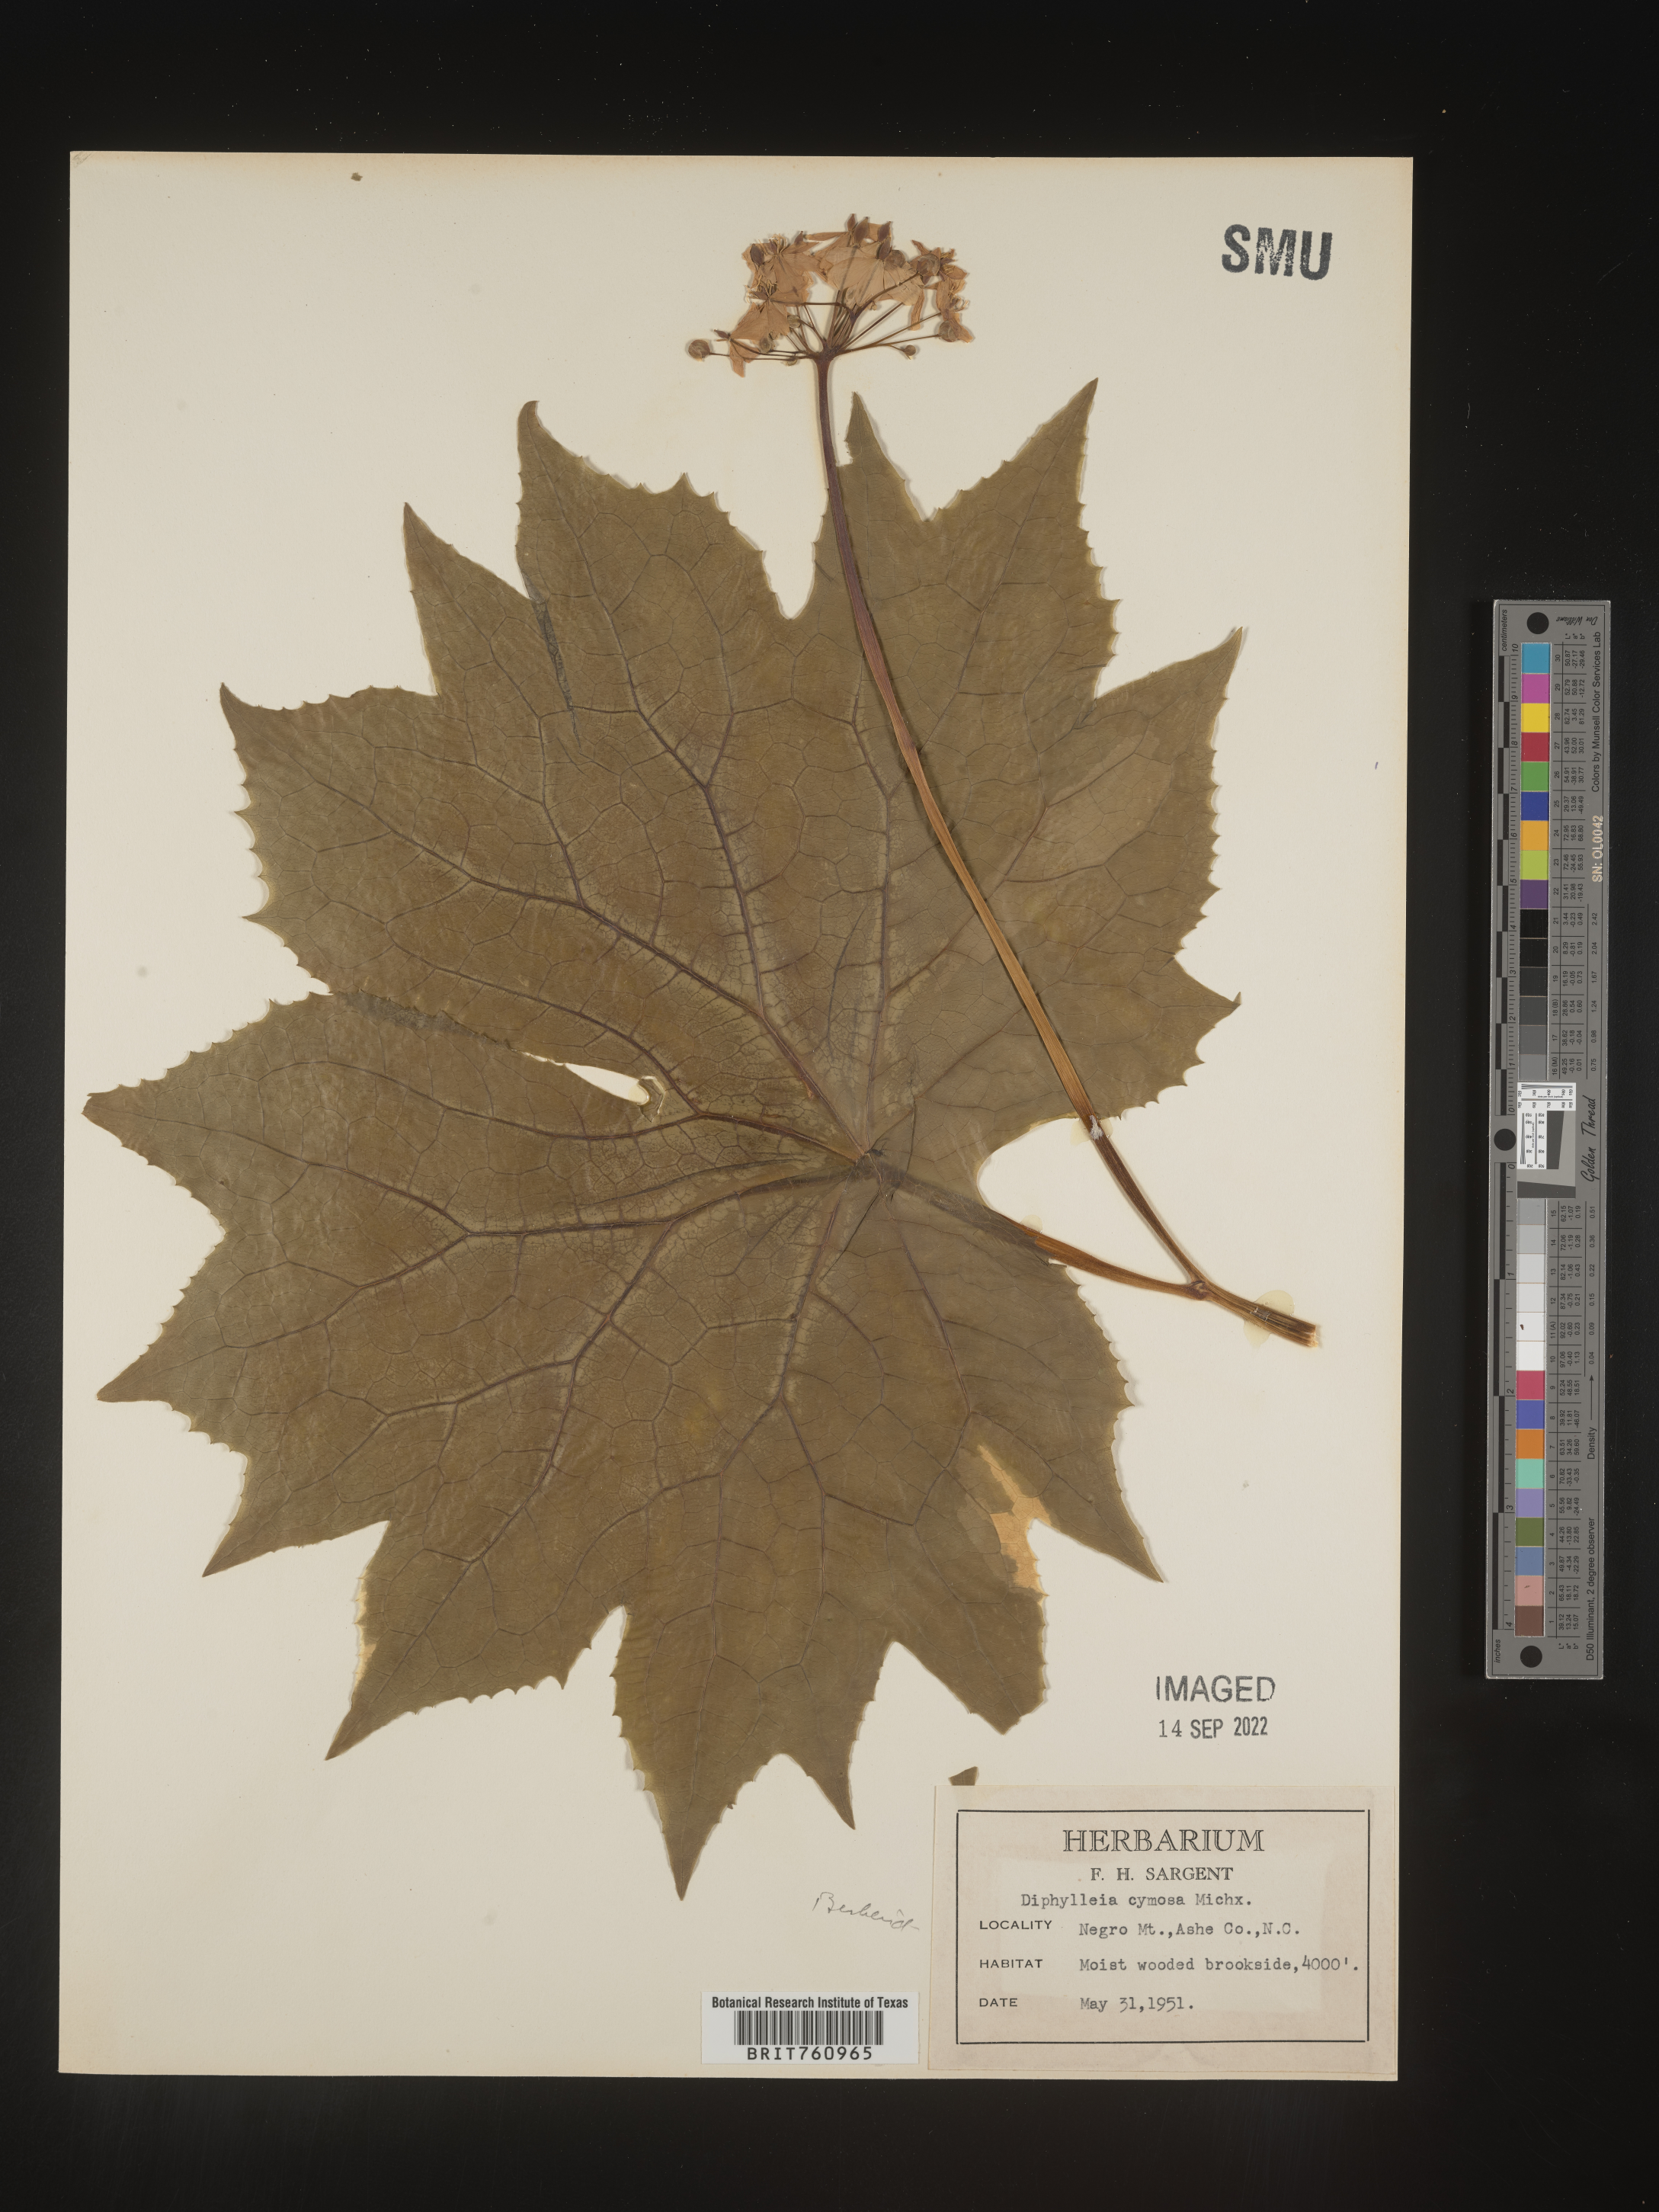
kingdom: Plantae
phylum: Tracheophyta
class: Magnoliopsida
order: Ranunculales
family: Berberidaceae
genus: Diphylleia
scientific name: Diphylleia
